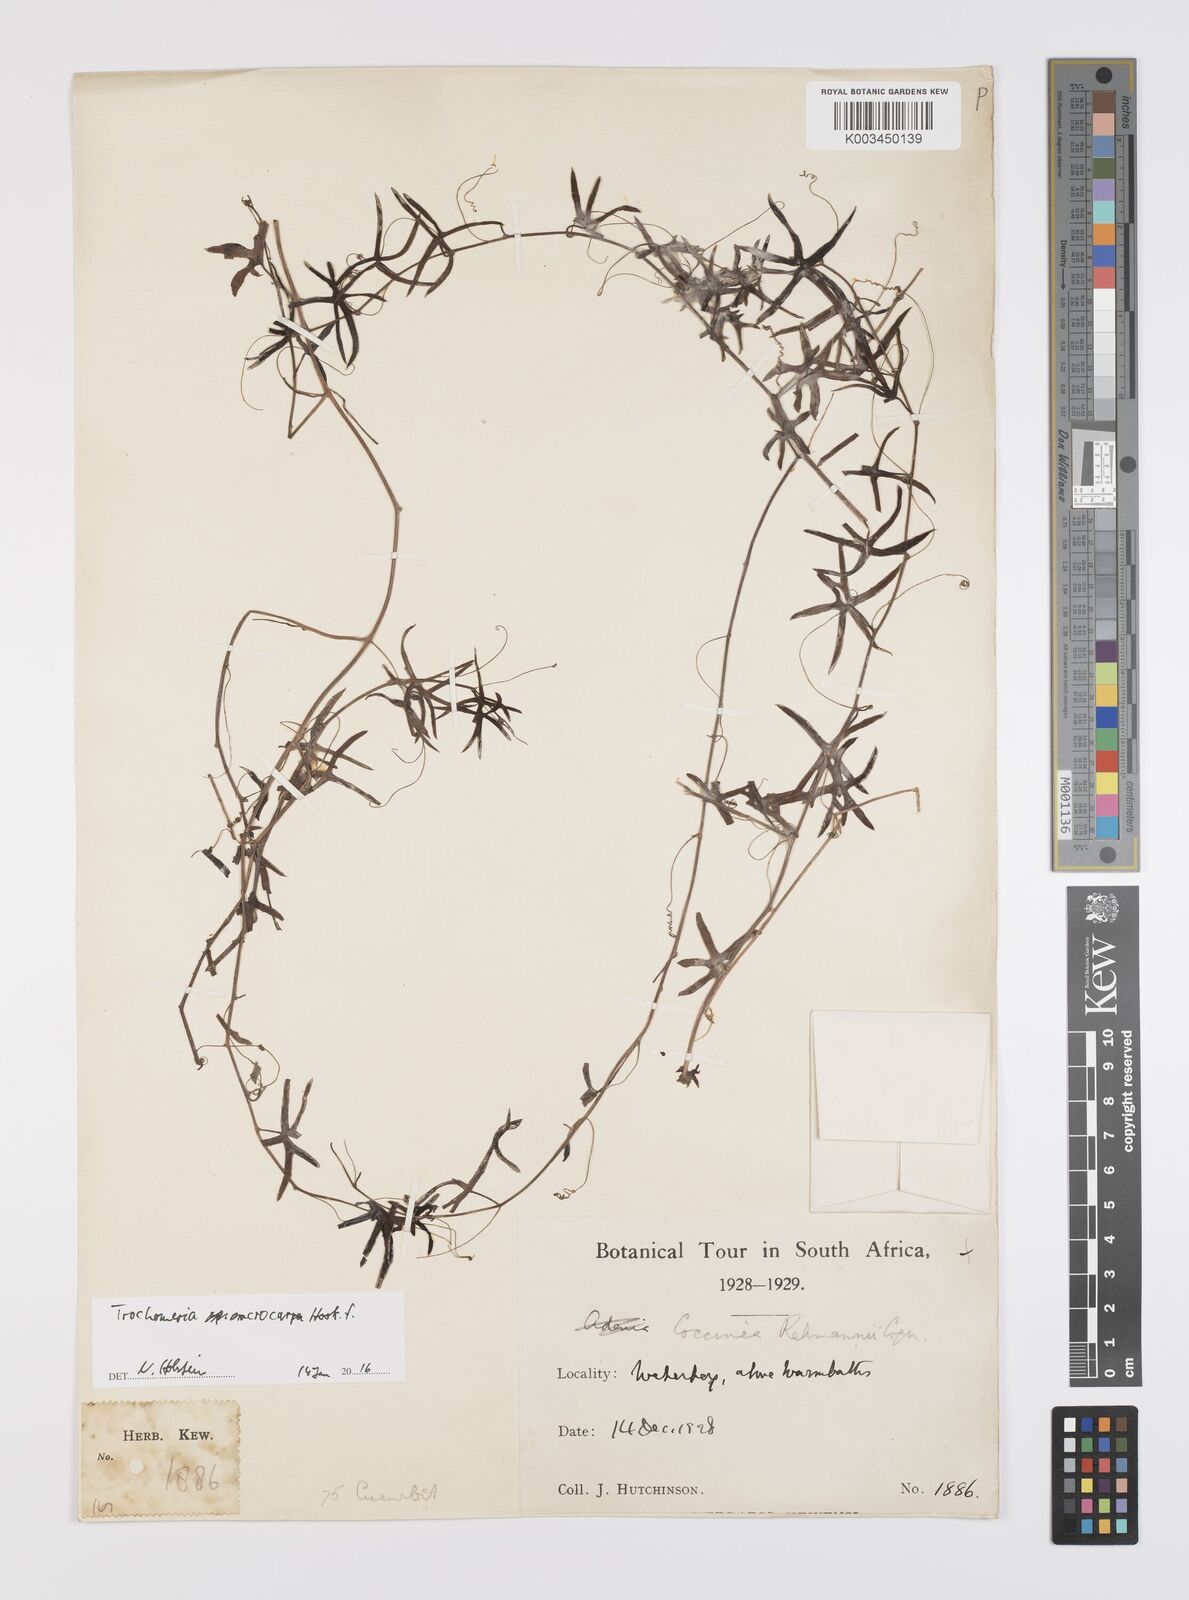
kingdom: Plantae
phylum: Tracheophyta
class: Magnoliopsida
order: Cucurbitales
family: Cucurbitaceae
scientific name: Cucurbitaceae
